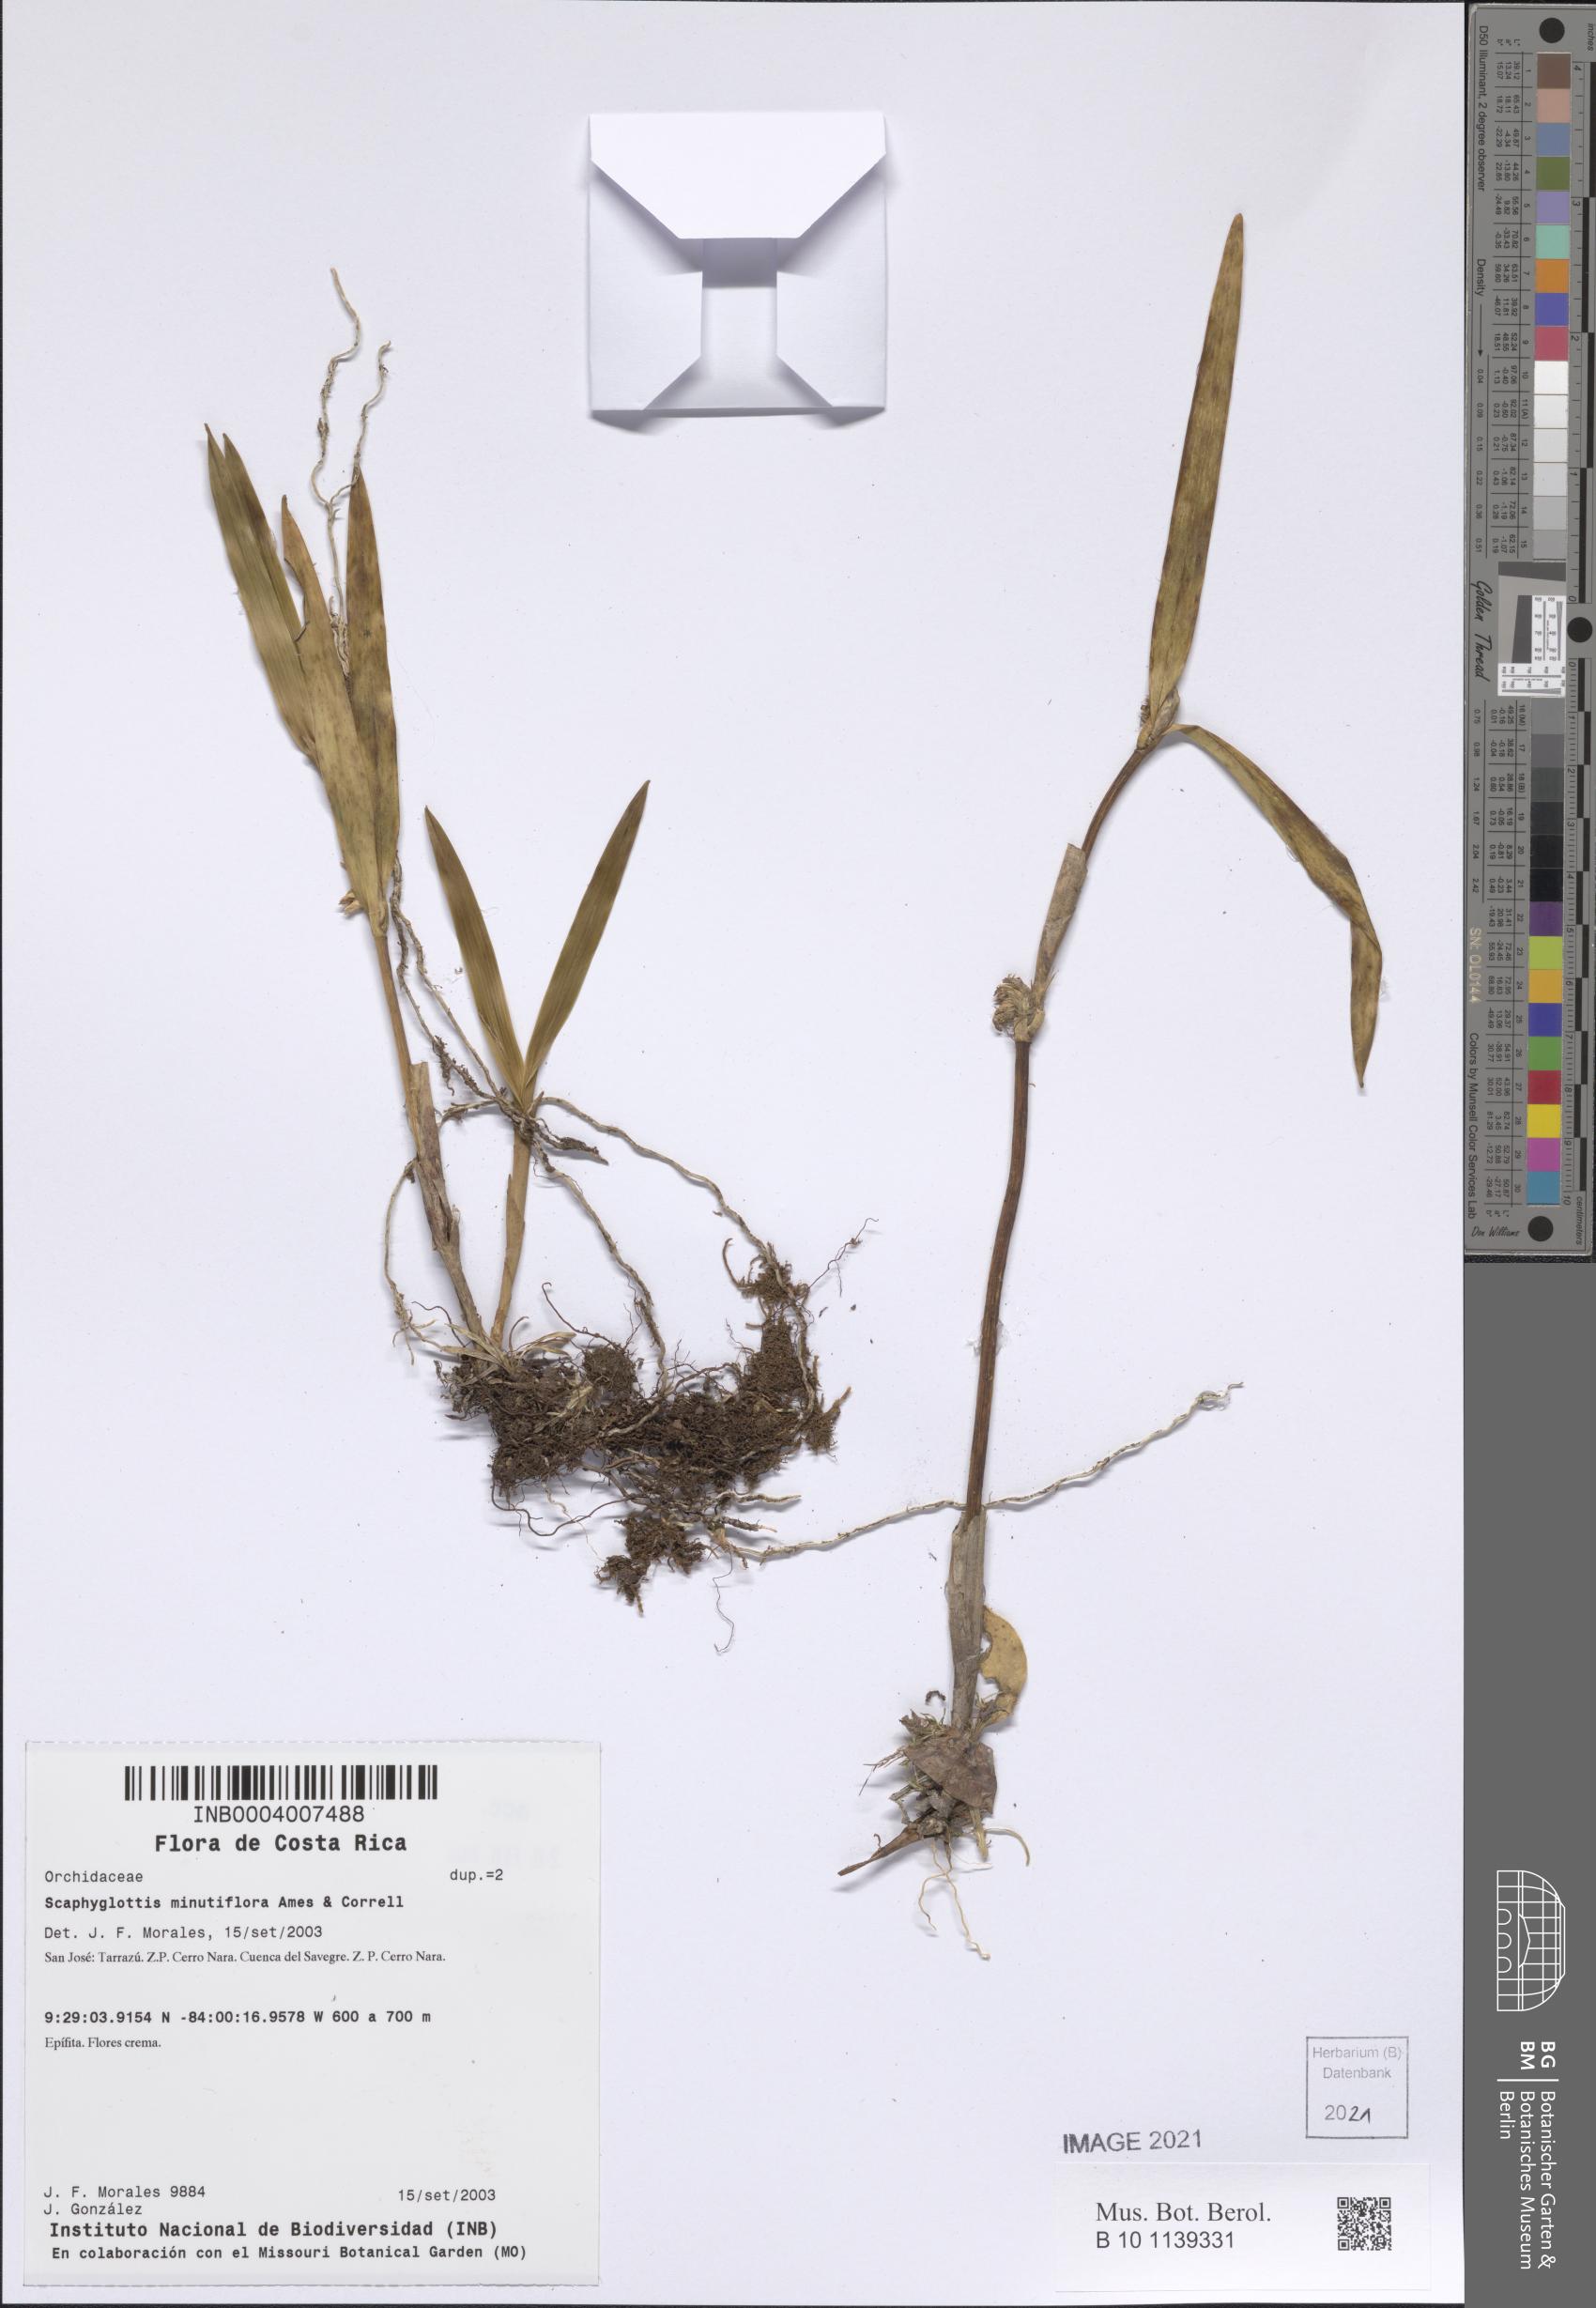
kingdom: Plantae
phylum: Tracheophyta
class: Liliopsida
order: Asparagales
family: Orchidaceae
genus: Scaphyglottis
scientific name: Scaphyglottis minutiflora
